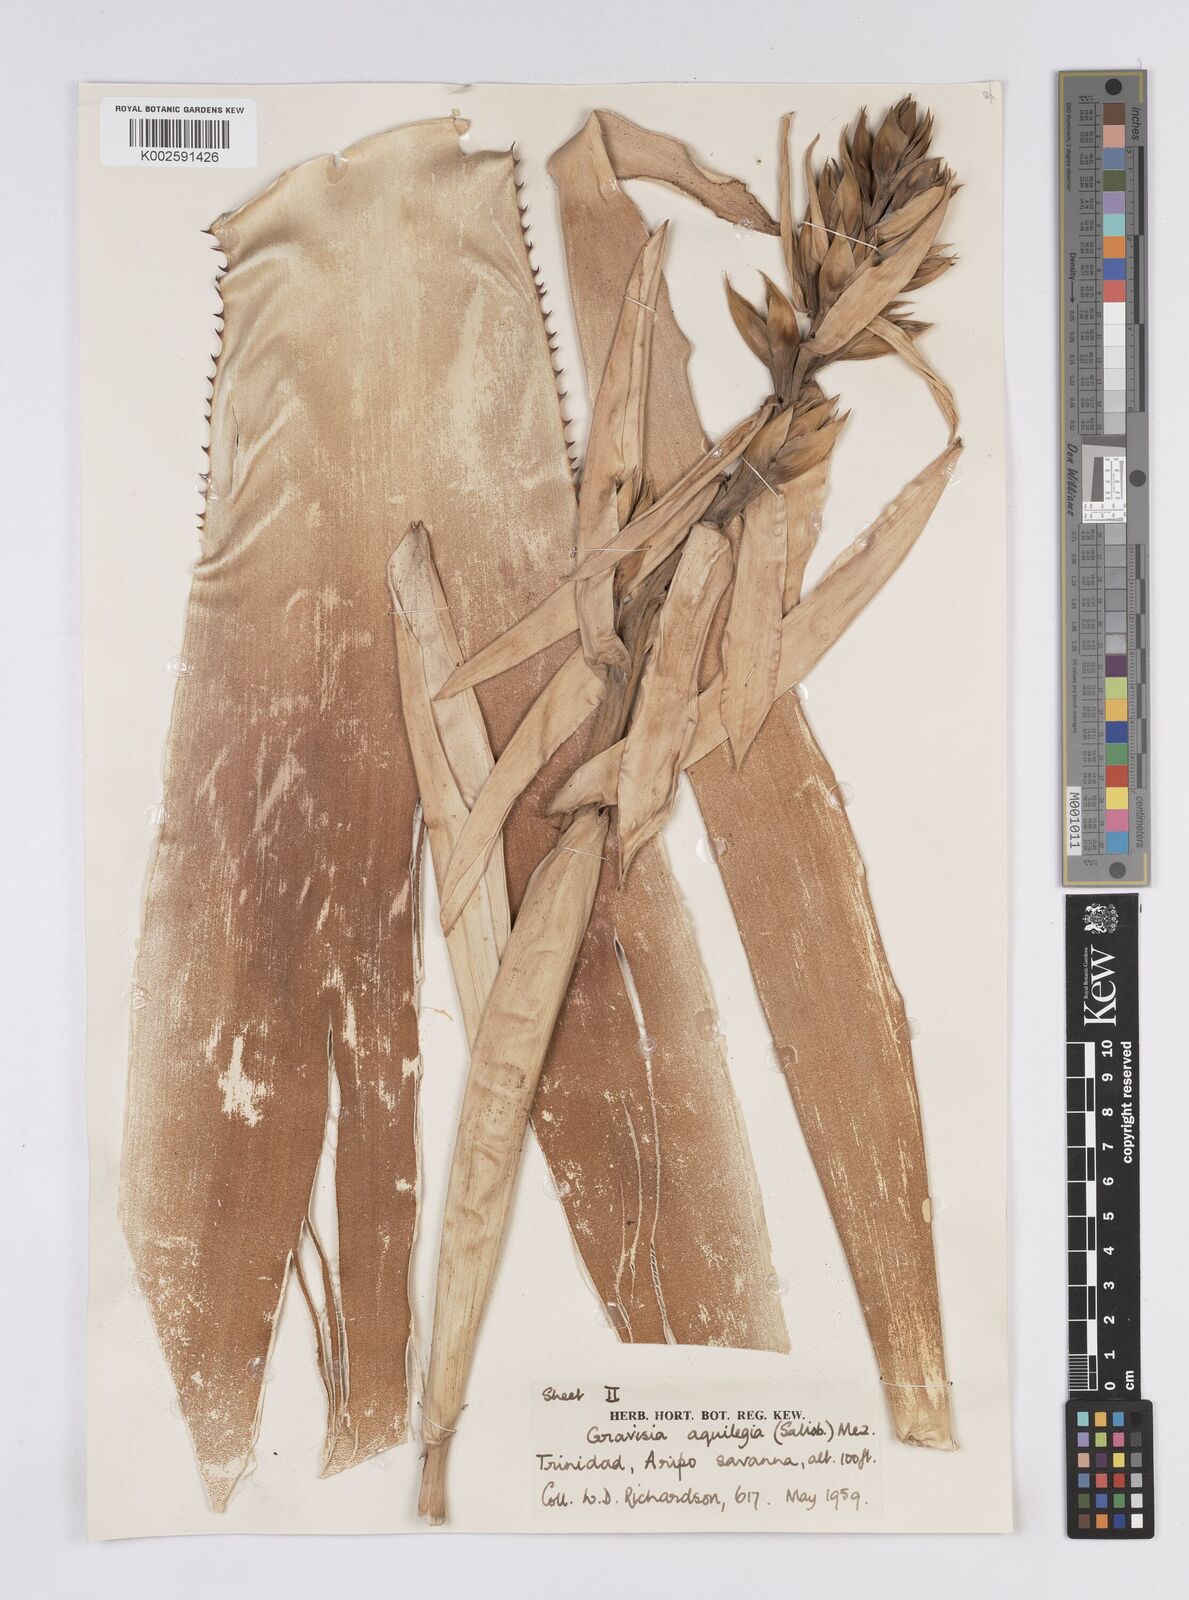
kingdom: Plantae
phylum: Tracheophyta
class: Liliopsida
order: Poales
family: Bromeliaceae
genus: Aechmea
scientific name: Aechmea aquilega
